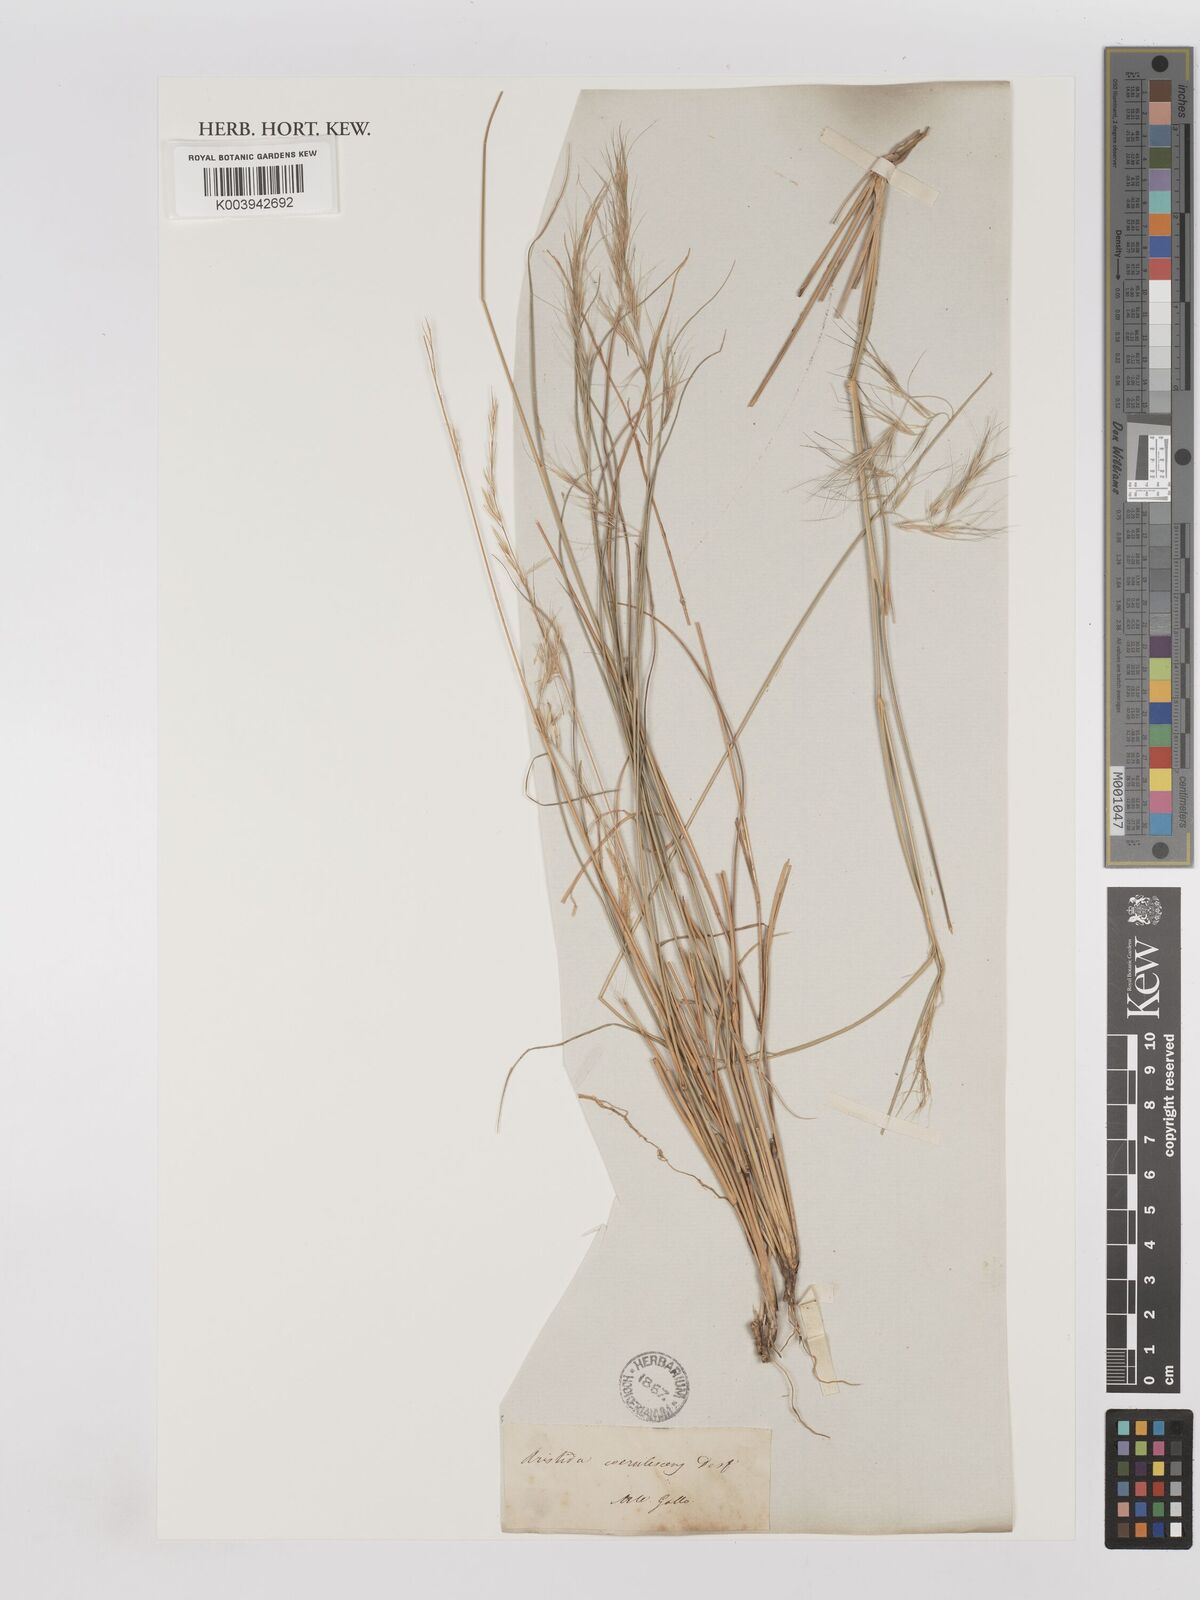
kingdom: Plantae
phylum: Tracheophyta
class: Liliopsida
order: Poales
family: Poaceae
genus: Aristida
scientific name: Aristida adscensionis
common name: Sixweeks threeawn
